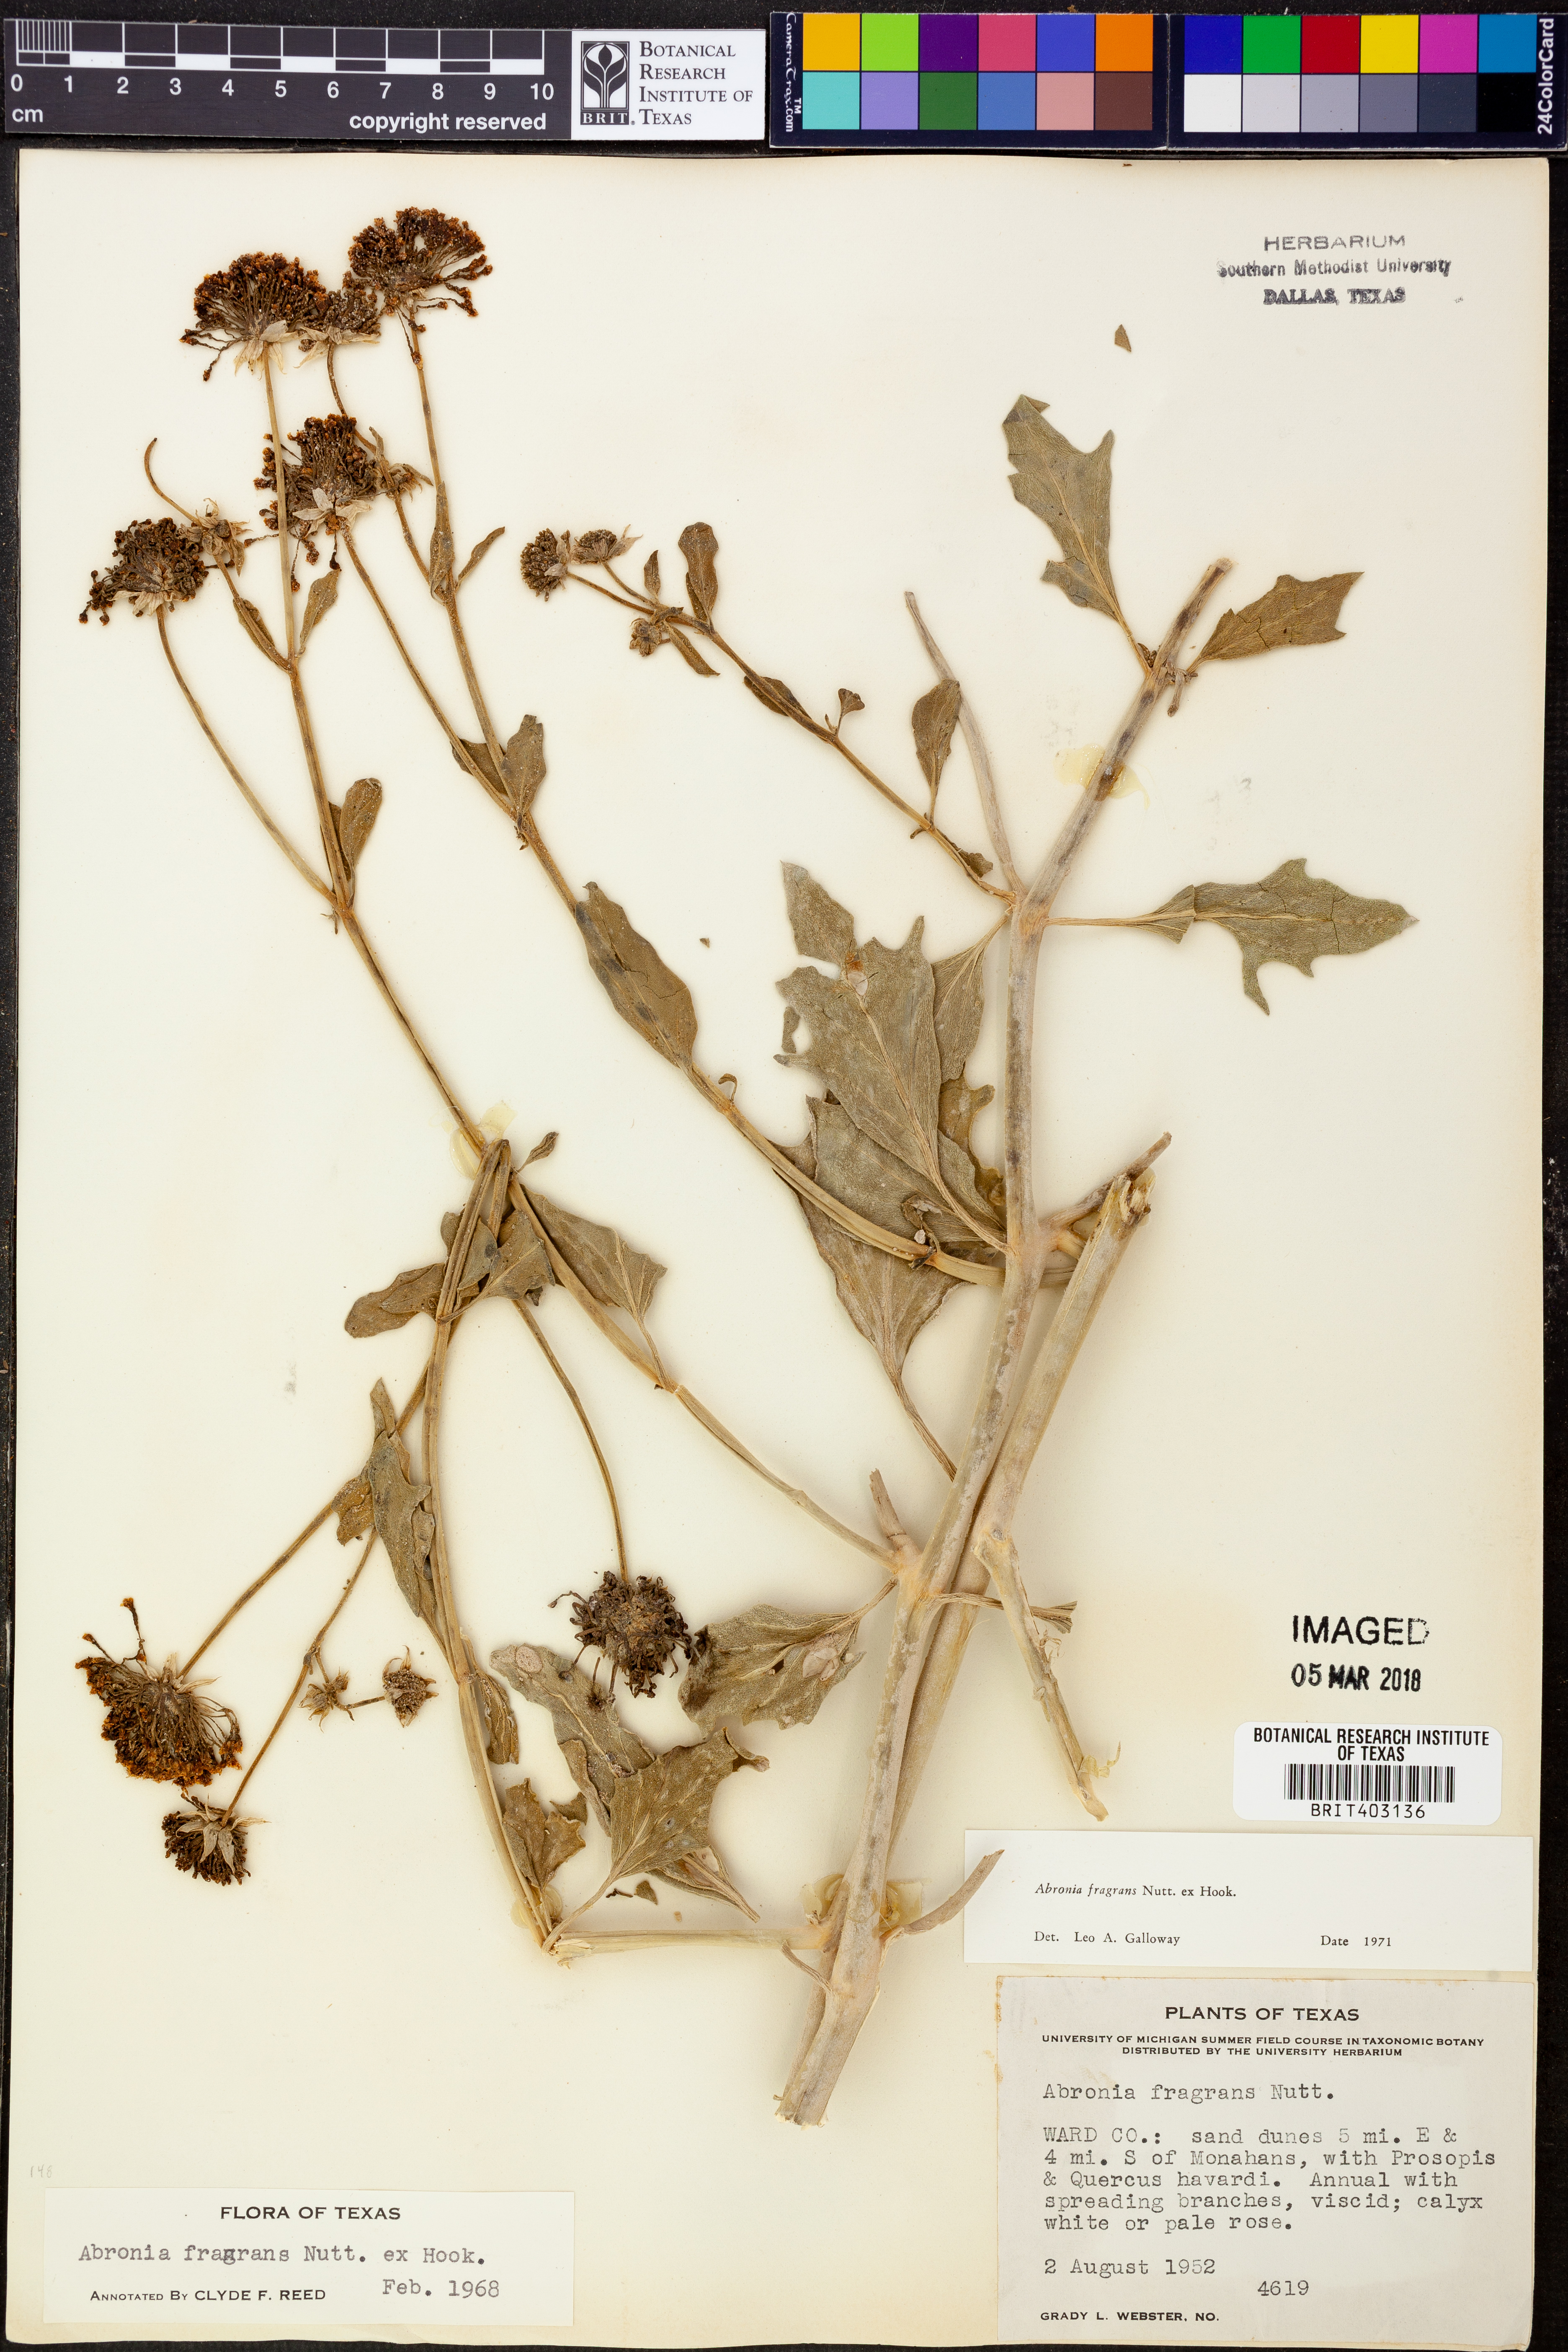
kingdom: Plantae
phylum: Tracheophyta
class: Magnoliopsida
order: Caryophyllales
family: Nyctaginaceae
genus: Abronia
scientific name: Abronia fragrans
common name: Fragrant sand-verbena
